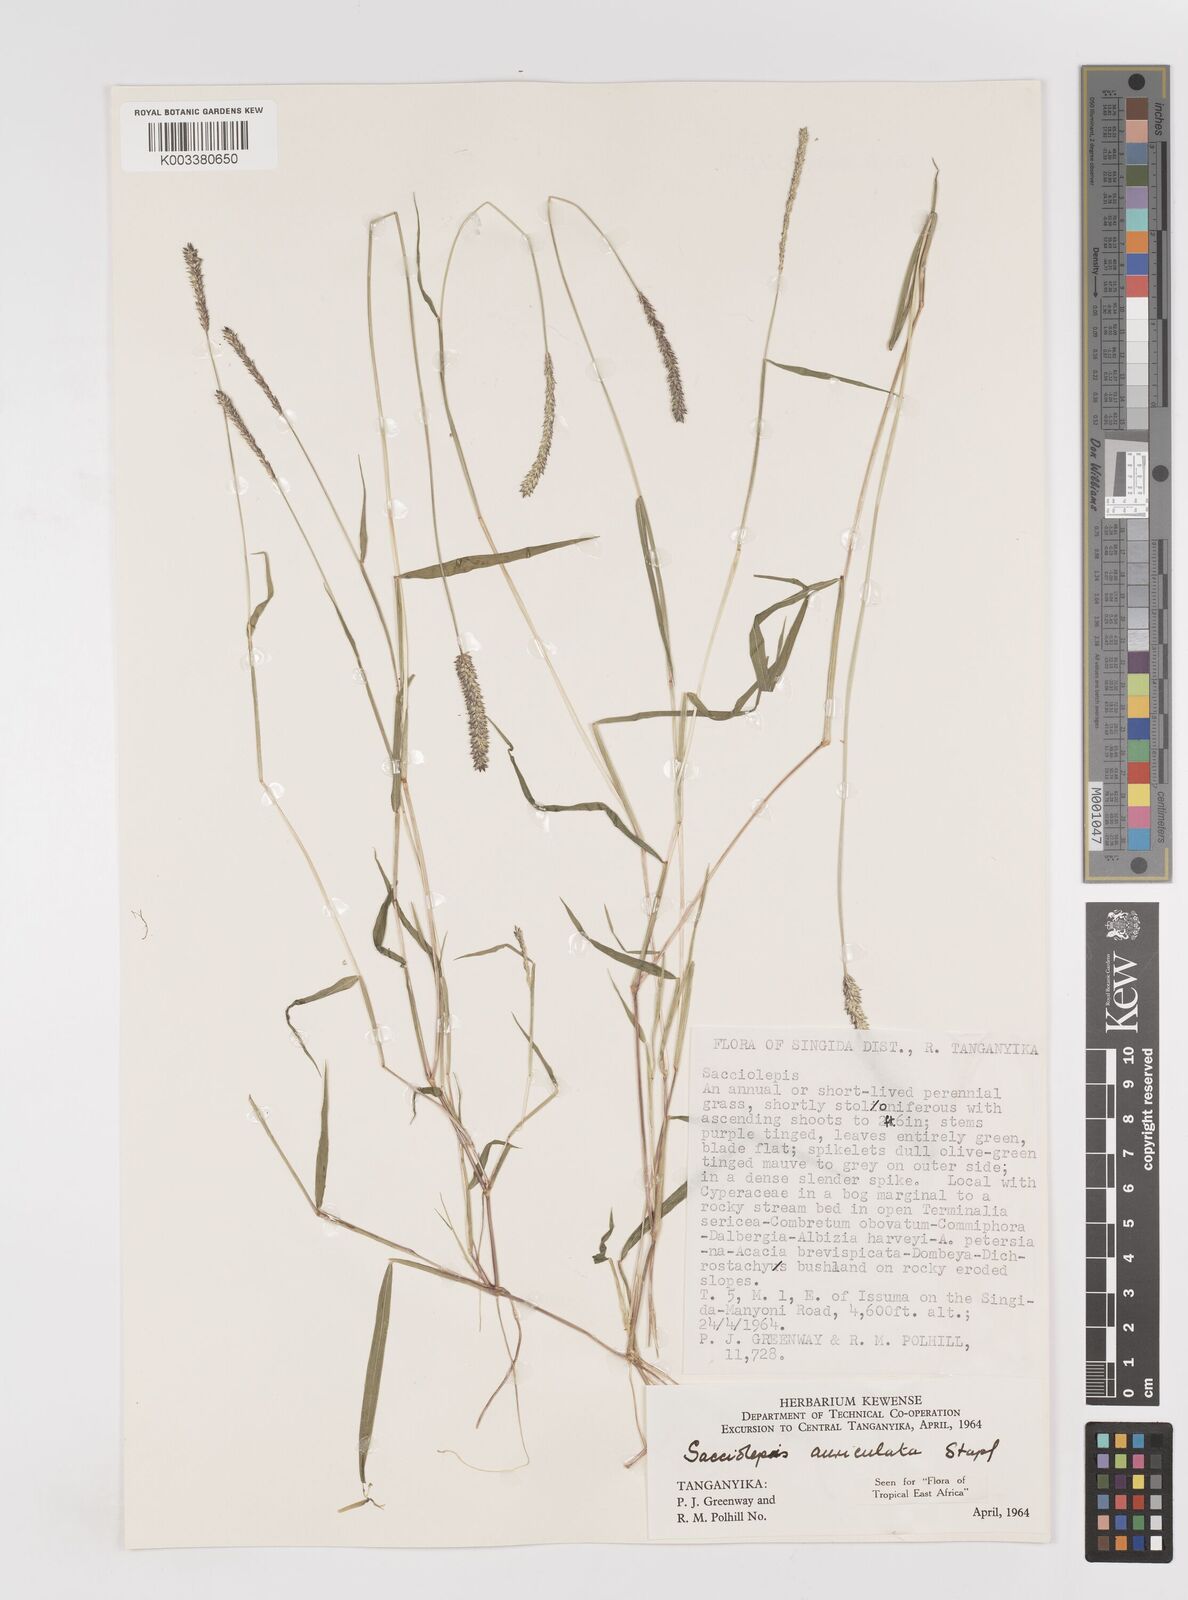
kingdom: Plantae
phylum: Tracheophyta
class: Liliopsida
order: Poales
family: Poaceae
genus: Sacciolepis
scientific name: Sacciolepis indica
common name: Glenwoodgrass
